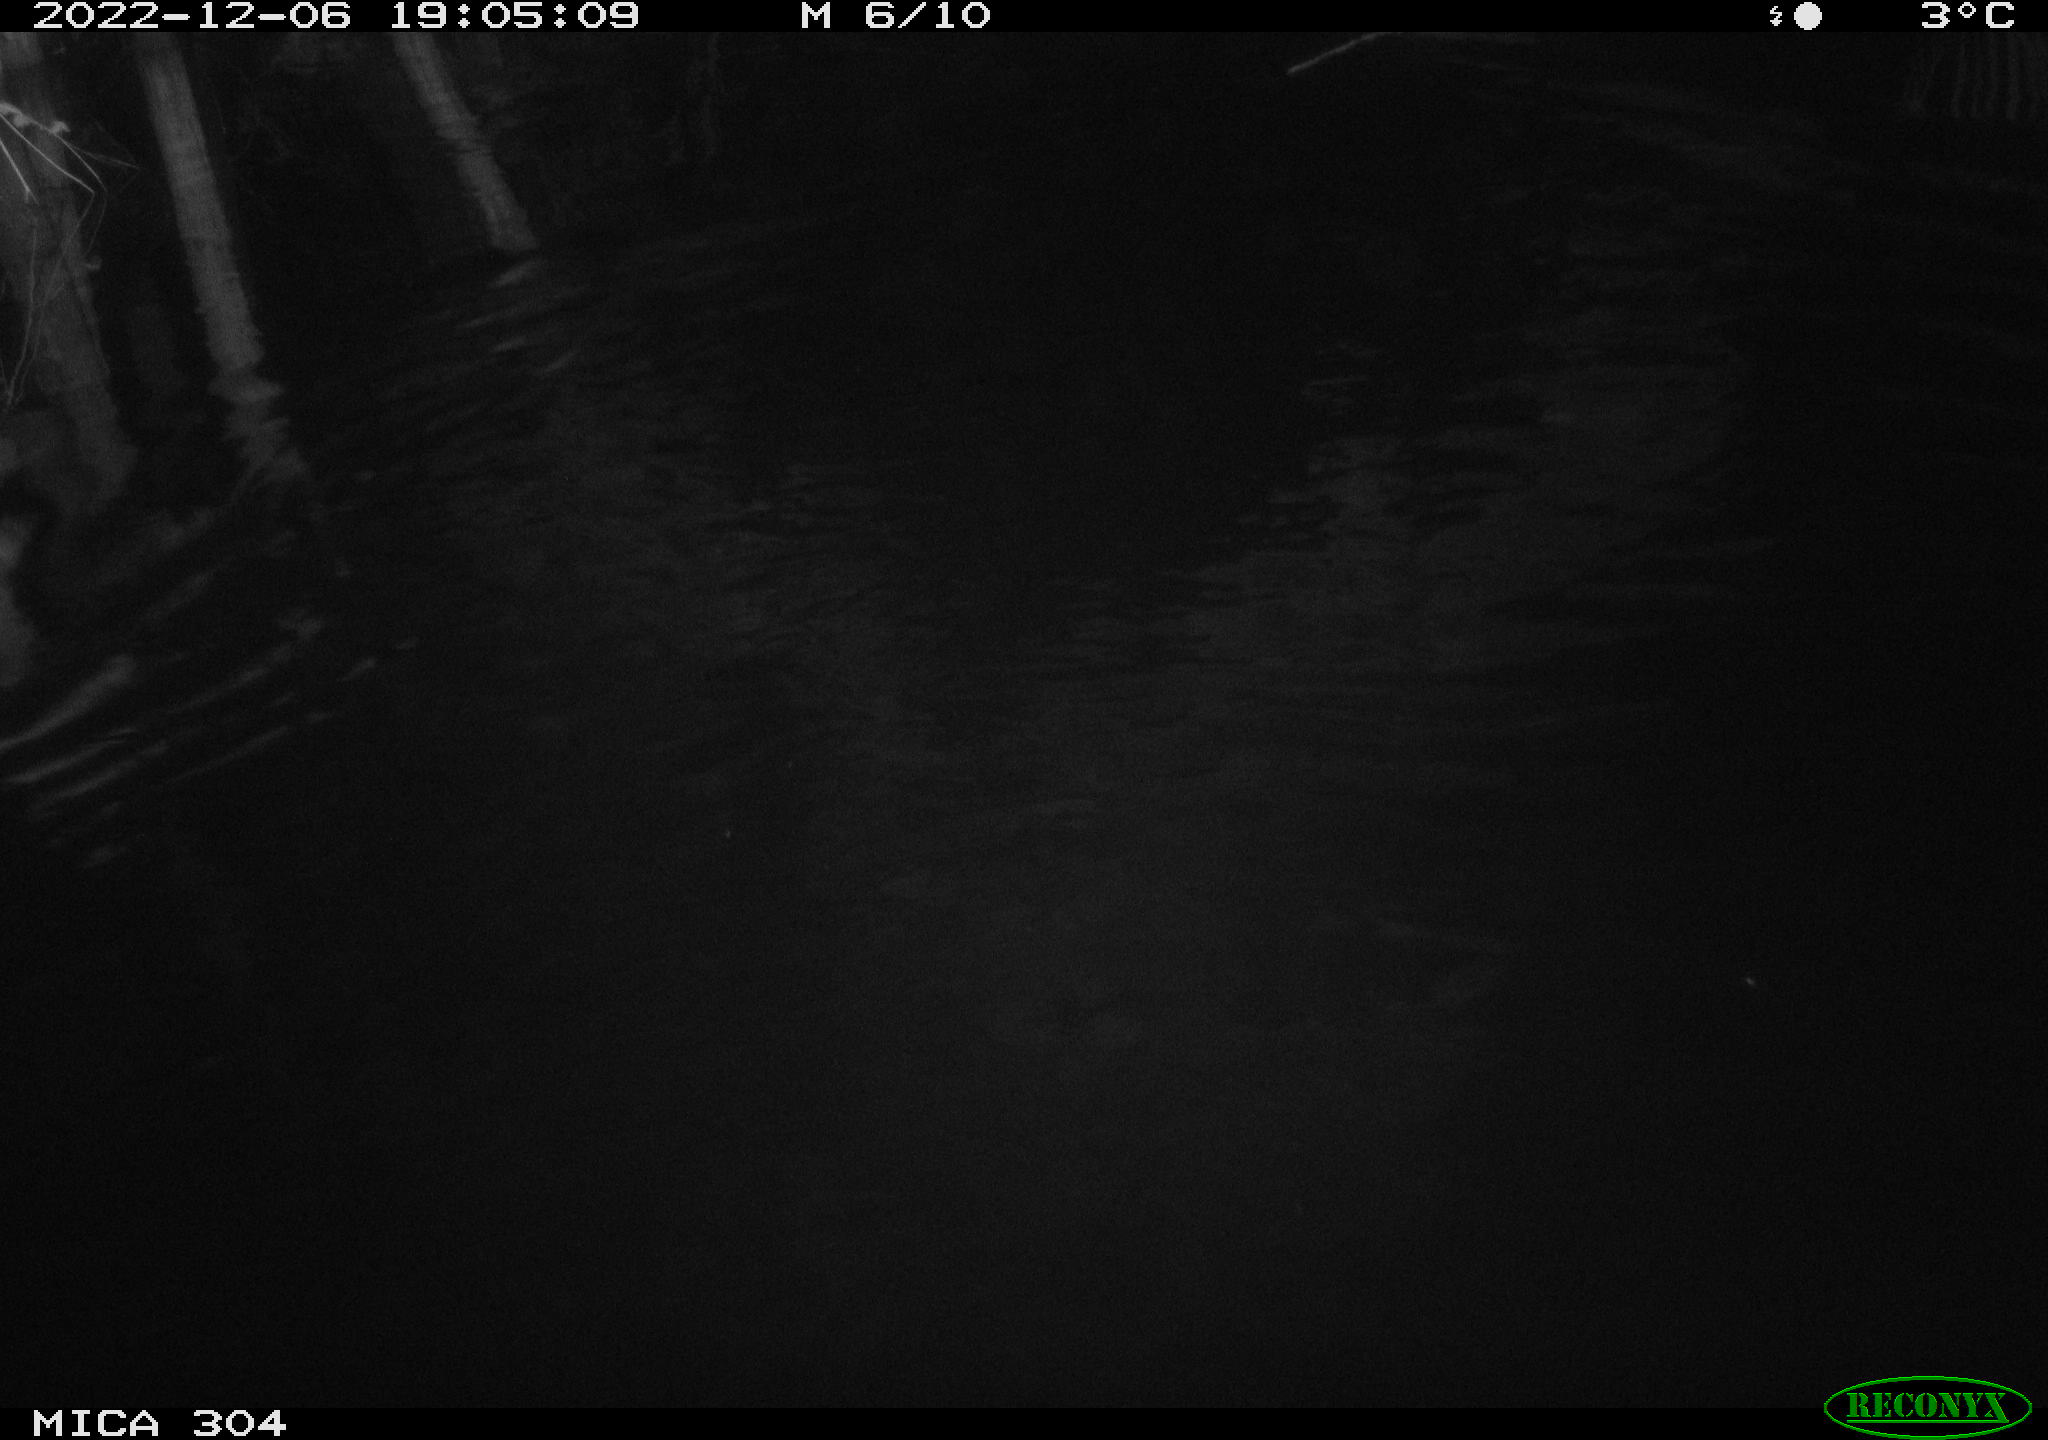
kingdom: Animalia
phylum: Chordata
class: Mammalia
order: Rodentia
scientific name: Rodentia
